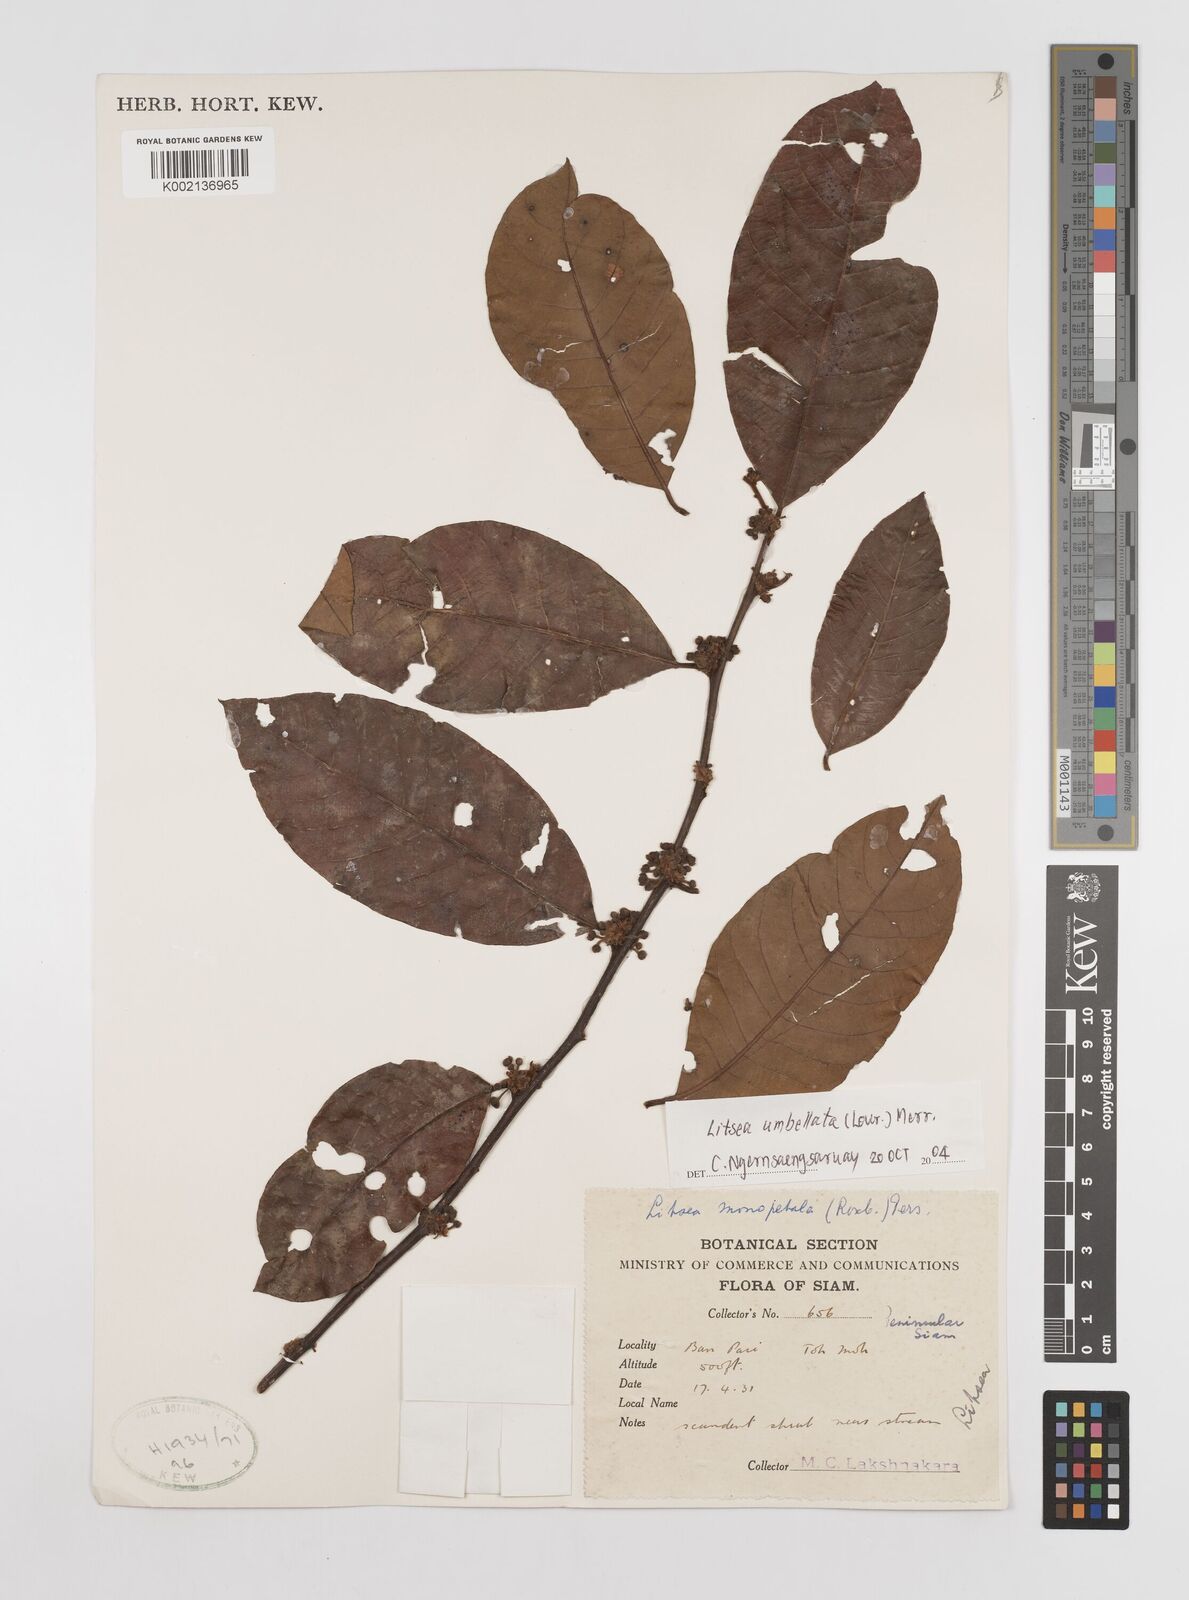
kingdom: Plantae
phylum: Tracheophyta
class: Magnoliopsida
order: Laurales
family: Lauraceae
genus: Litsea
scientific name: Litsea umbellata
